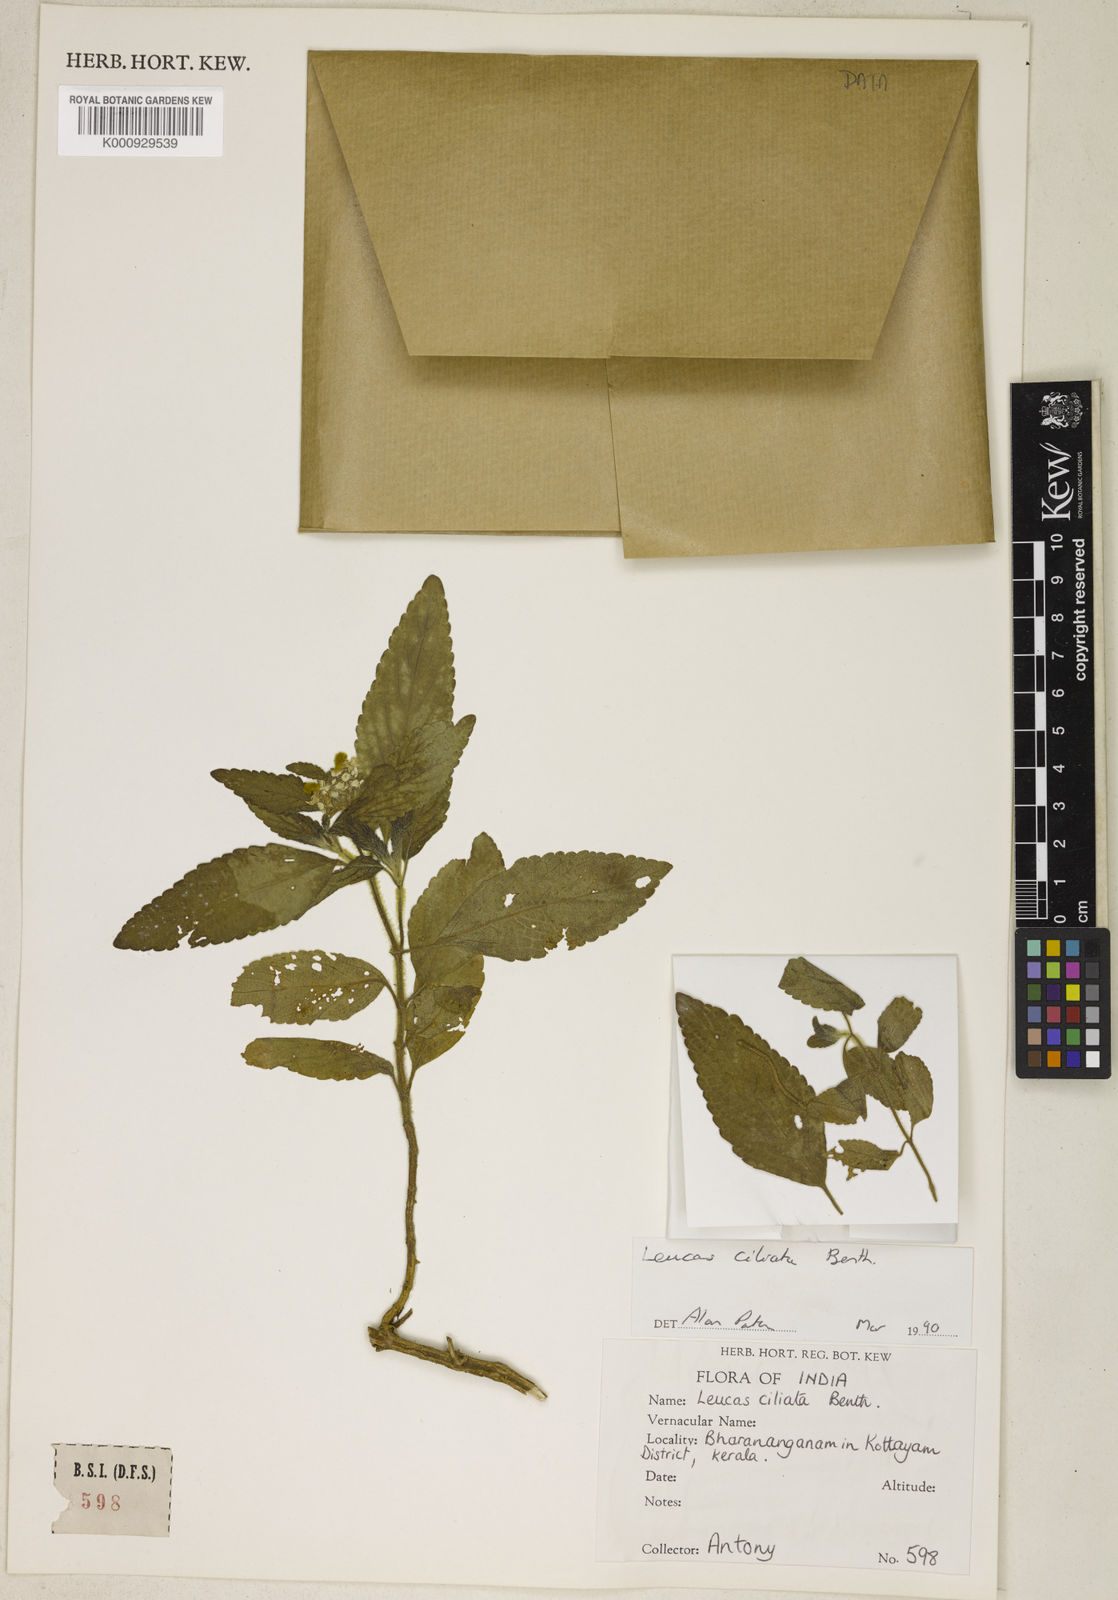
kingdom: Plantae
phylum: Tracheophyta
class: Magnoliopsida
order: Lamiales
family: Lamiaceae
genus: Leucas
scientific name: Leucas ciliata
